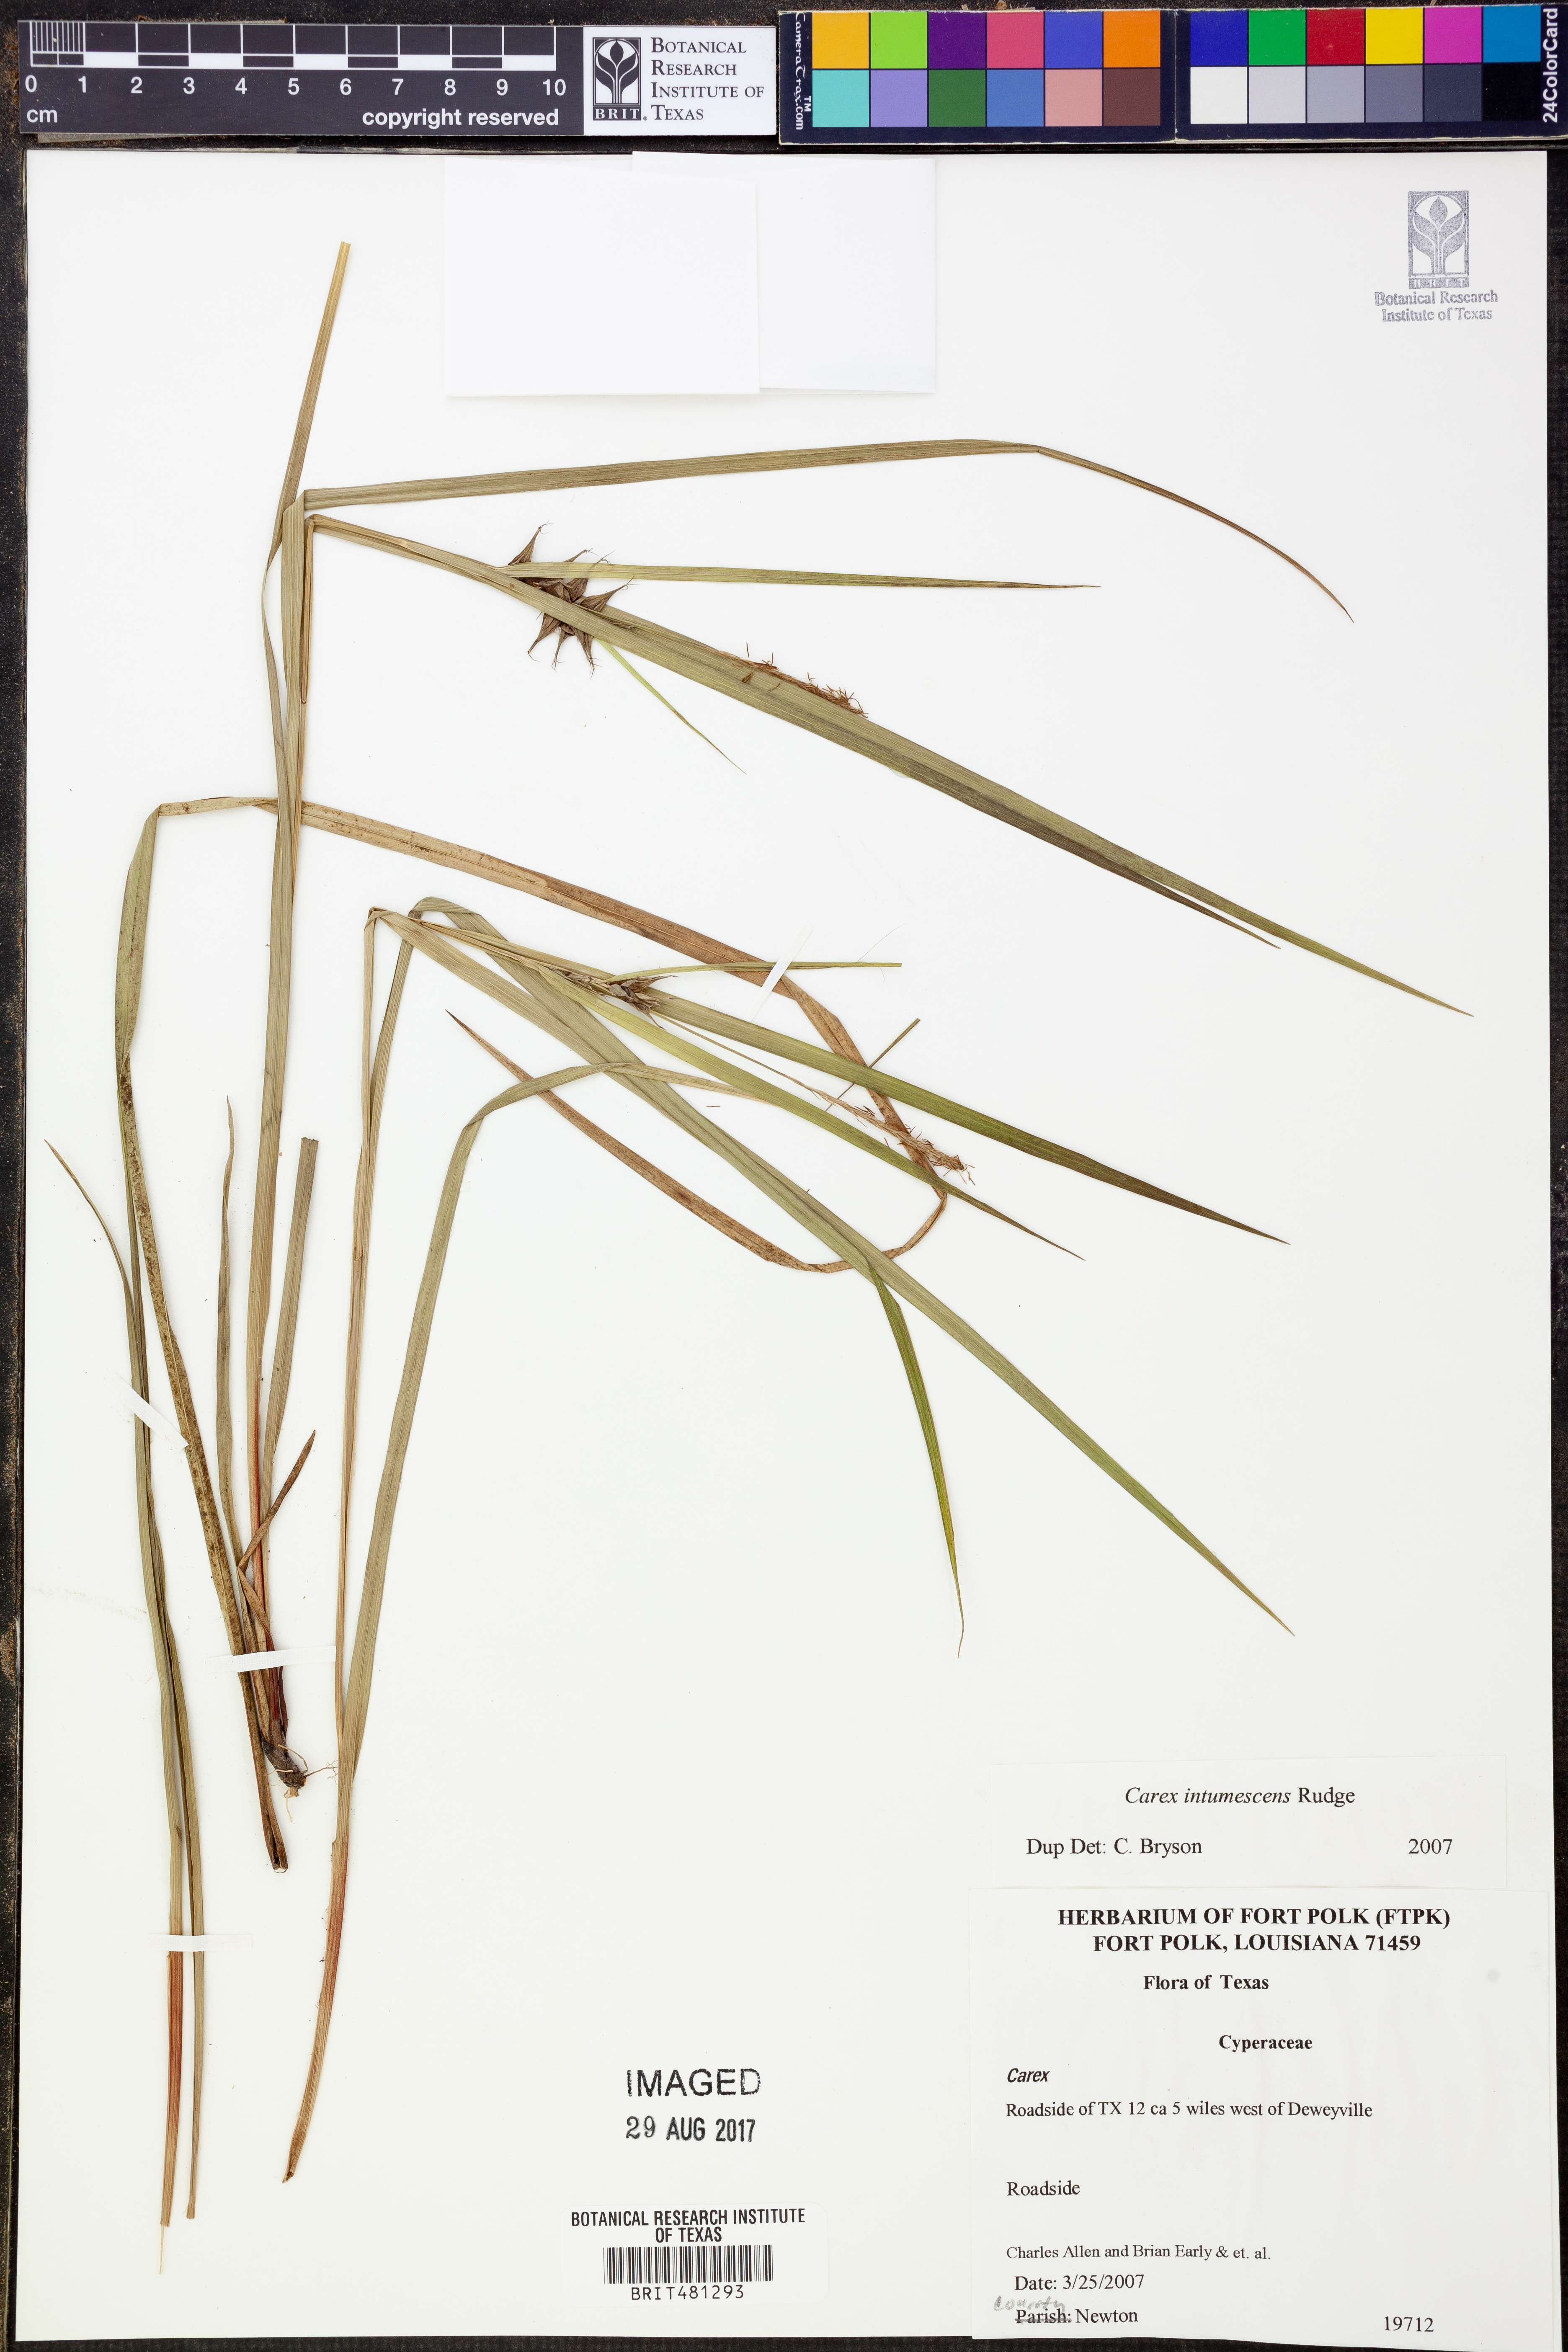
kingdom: Plantae
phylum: Tracheophyta
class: Liliopsida
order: Poales
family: Cyperaceae
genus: Carex
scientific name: Carex intumescens
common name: Greater bladder sedge
